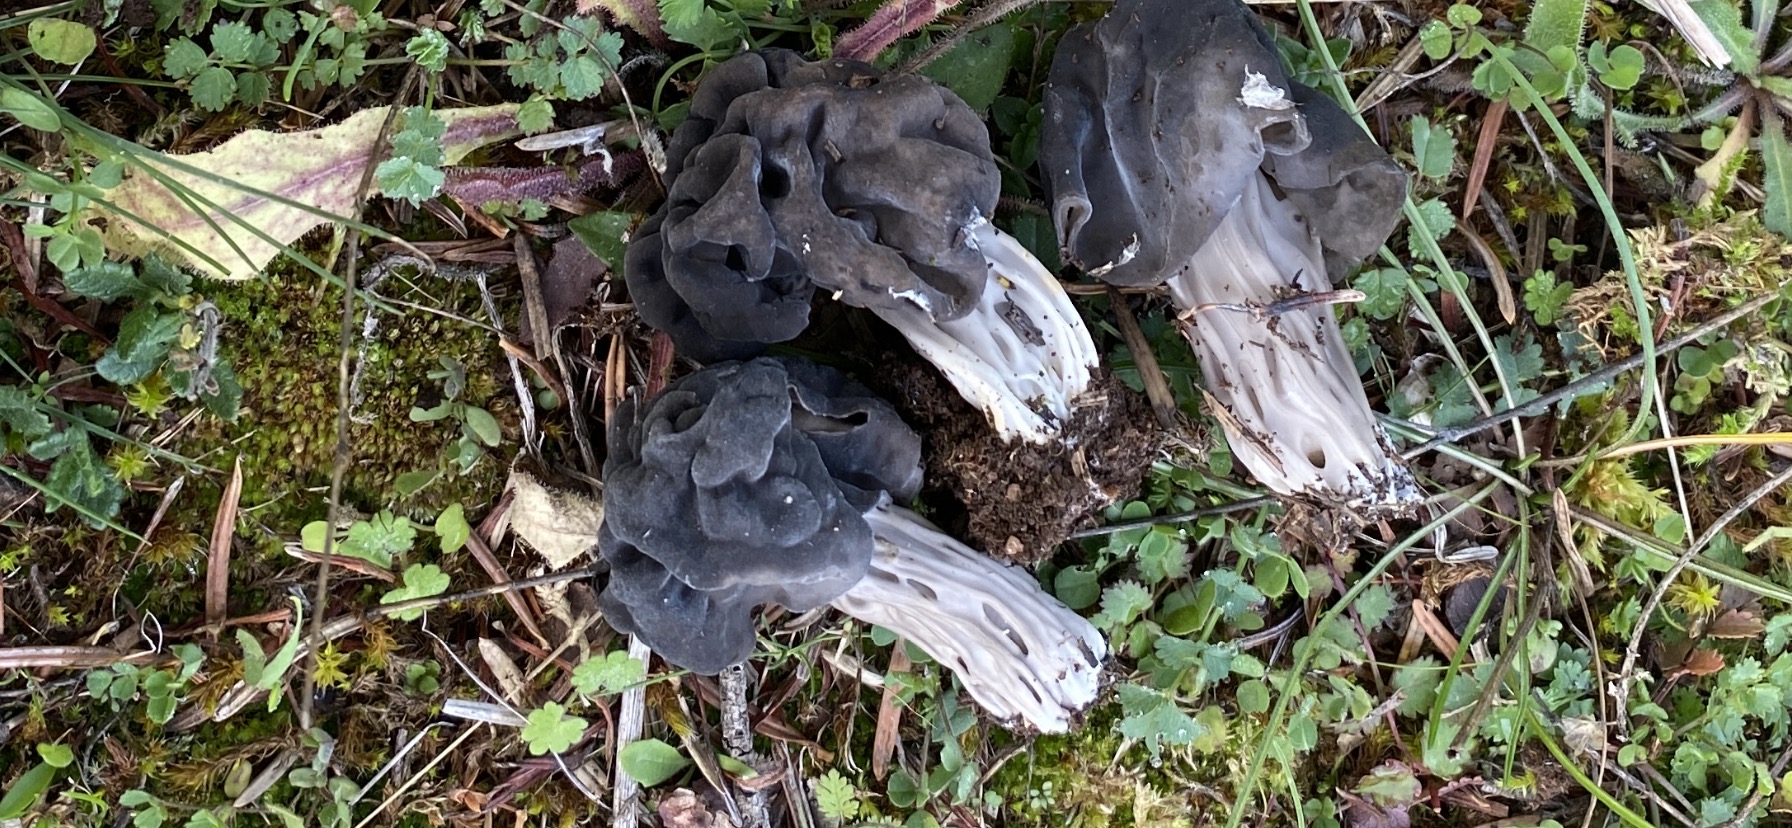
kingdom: Fungi
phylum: Ascomycota
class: Pezizomycetes
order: Pezizales
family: Helvellaceae
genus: Helvella
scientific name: Helvella lacunosa
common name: grubet foldhat
